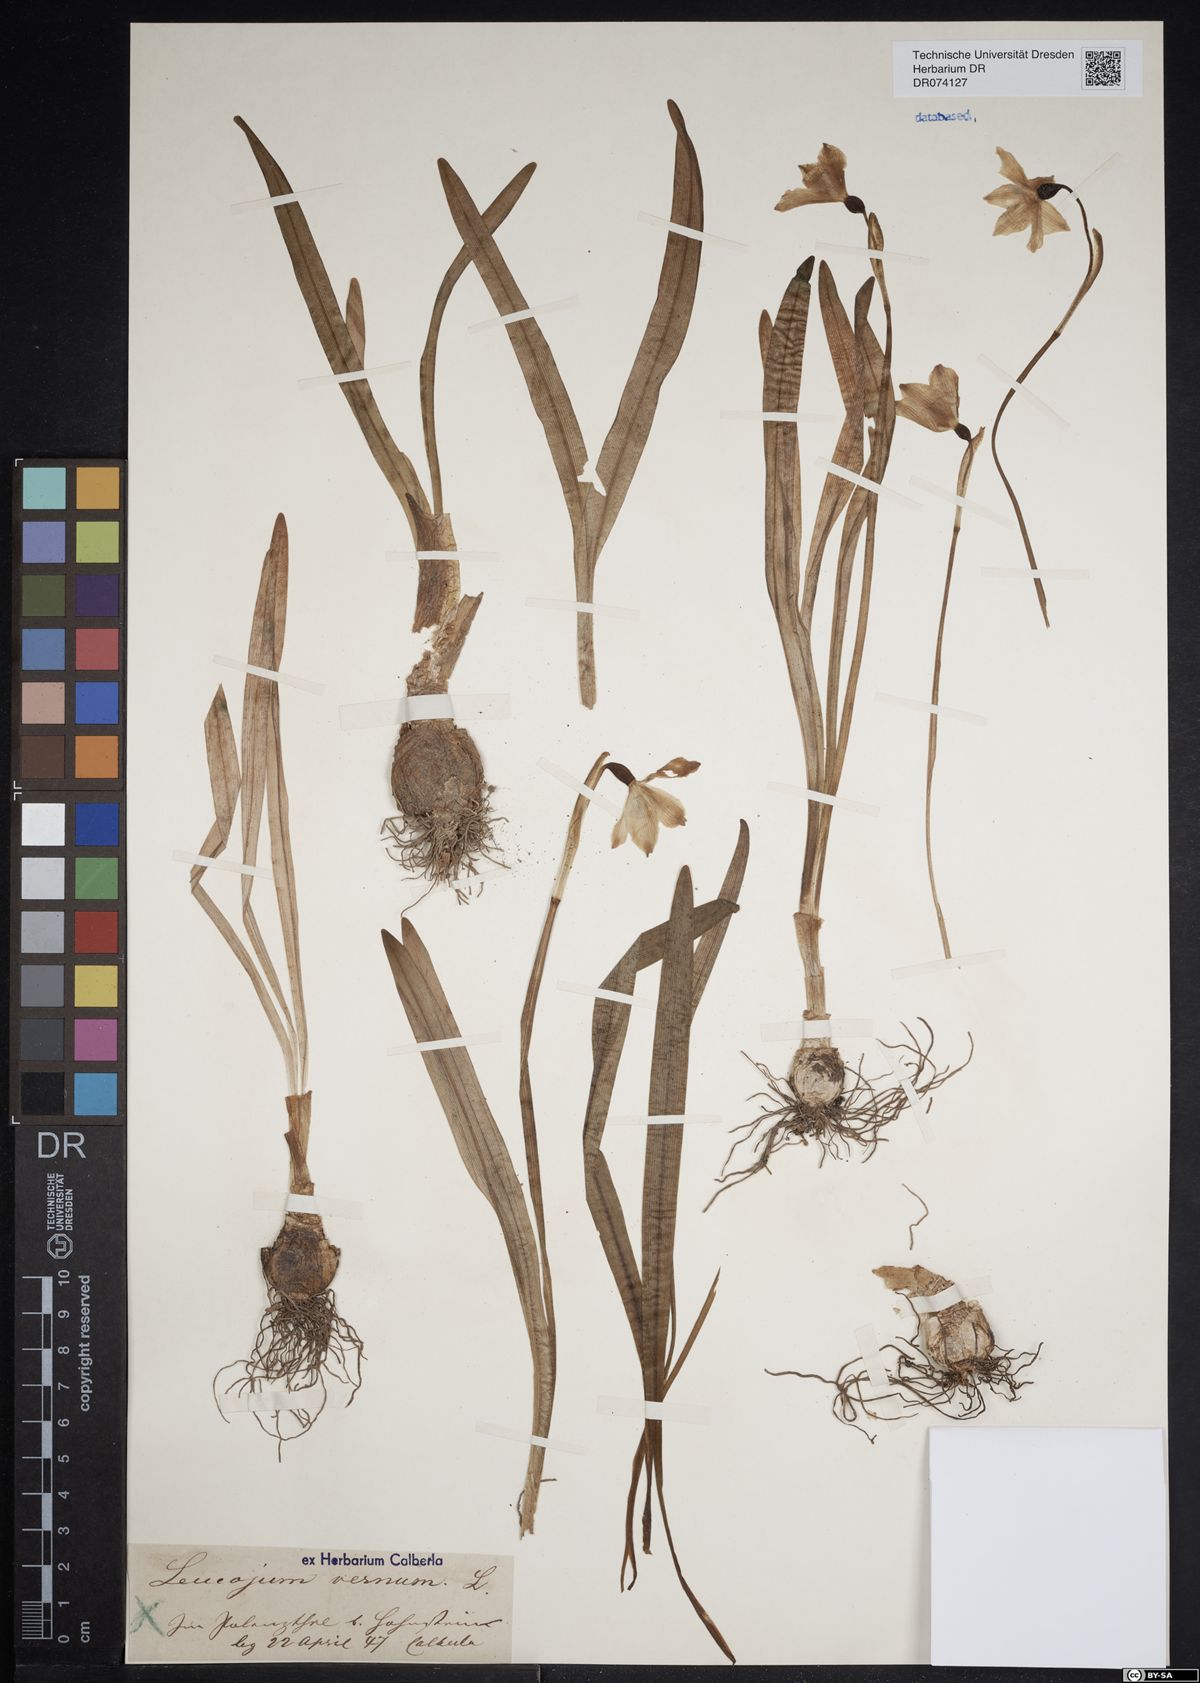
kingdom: Plantae
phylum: Tracheophyta
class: Liliopsida
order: Asparagales
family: Amaryllidaceae
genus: Leucojum
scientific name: Leucojum vernum
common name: Spring snowflake
